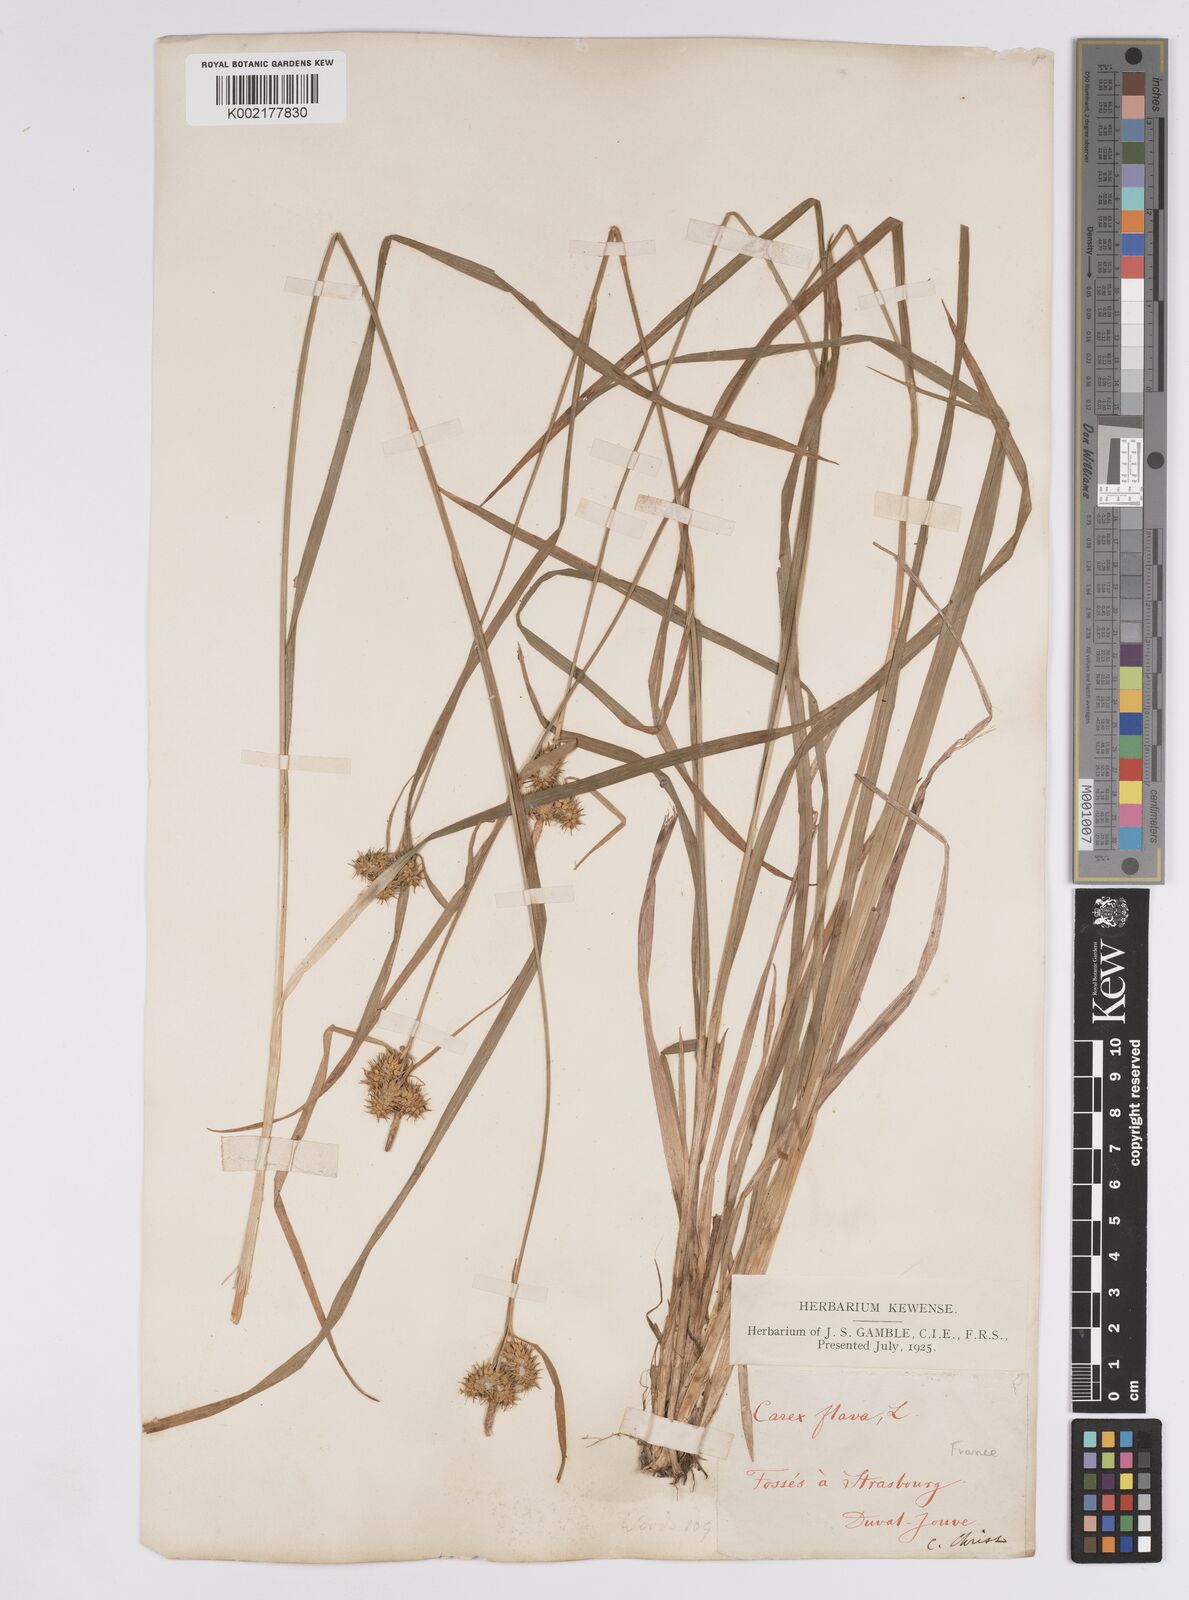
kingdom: Plantae
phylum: Tracheophyta
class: Liliopsida
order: Poales
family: Cyperaceae
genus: Carex
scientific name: Carex flava
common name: Large yellow-sedge
